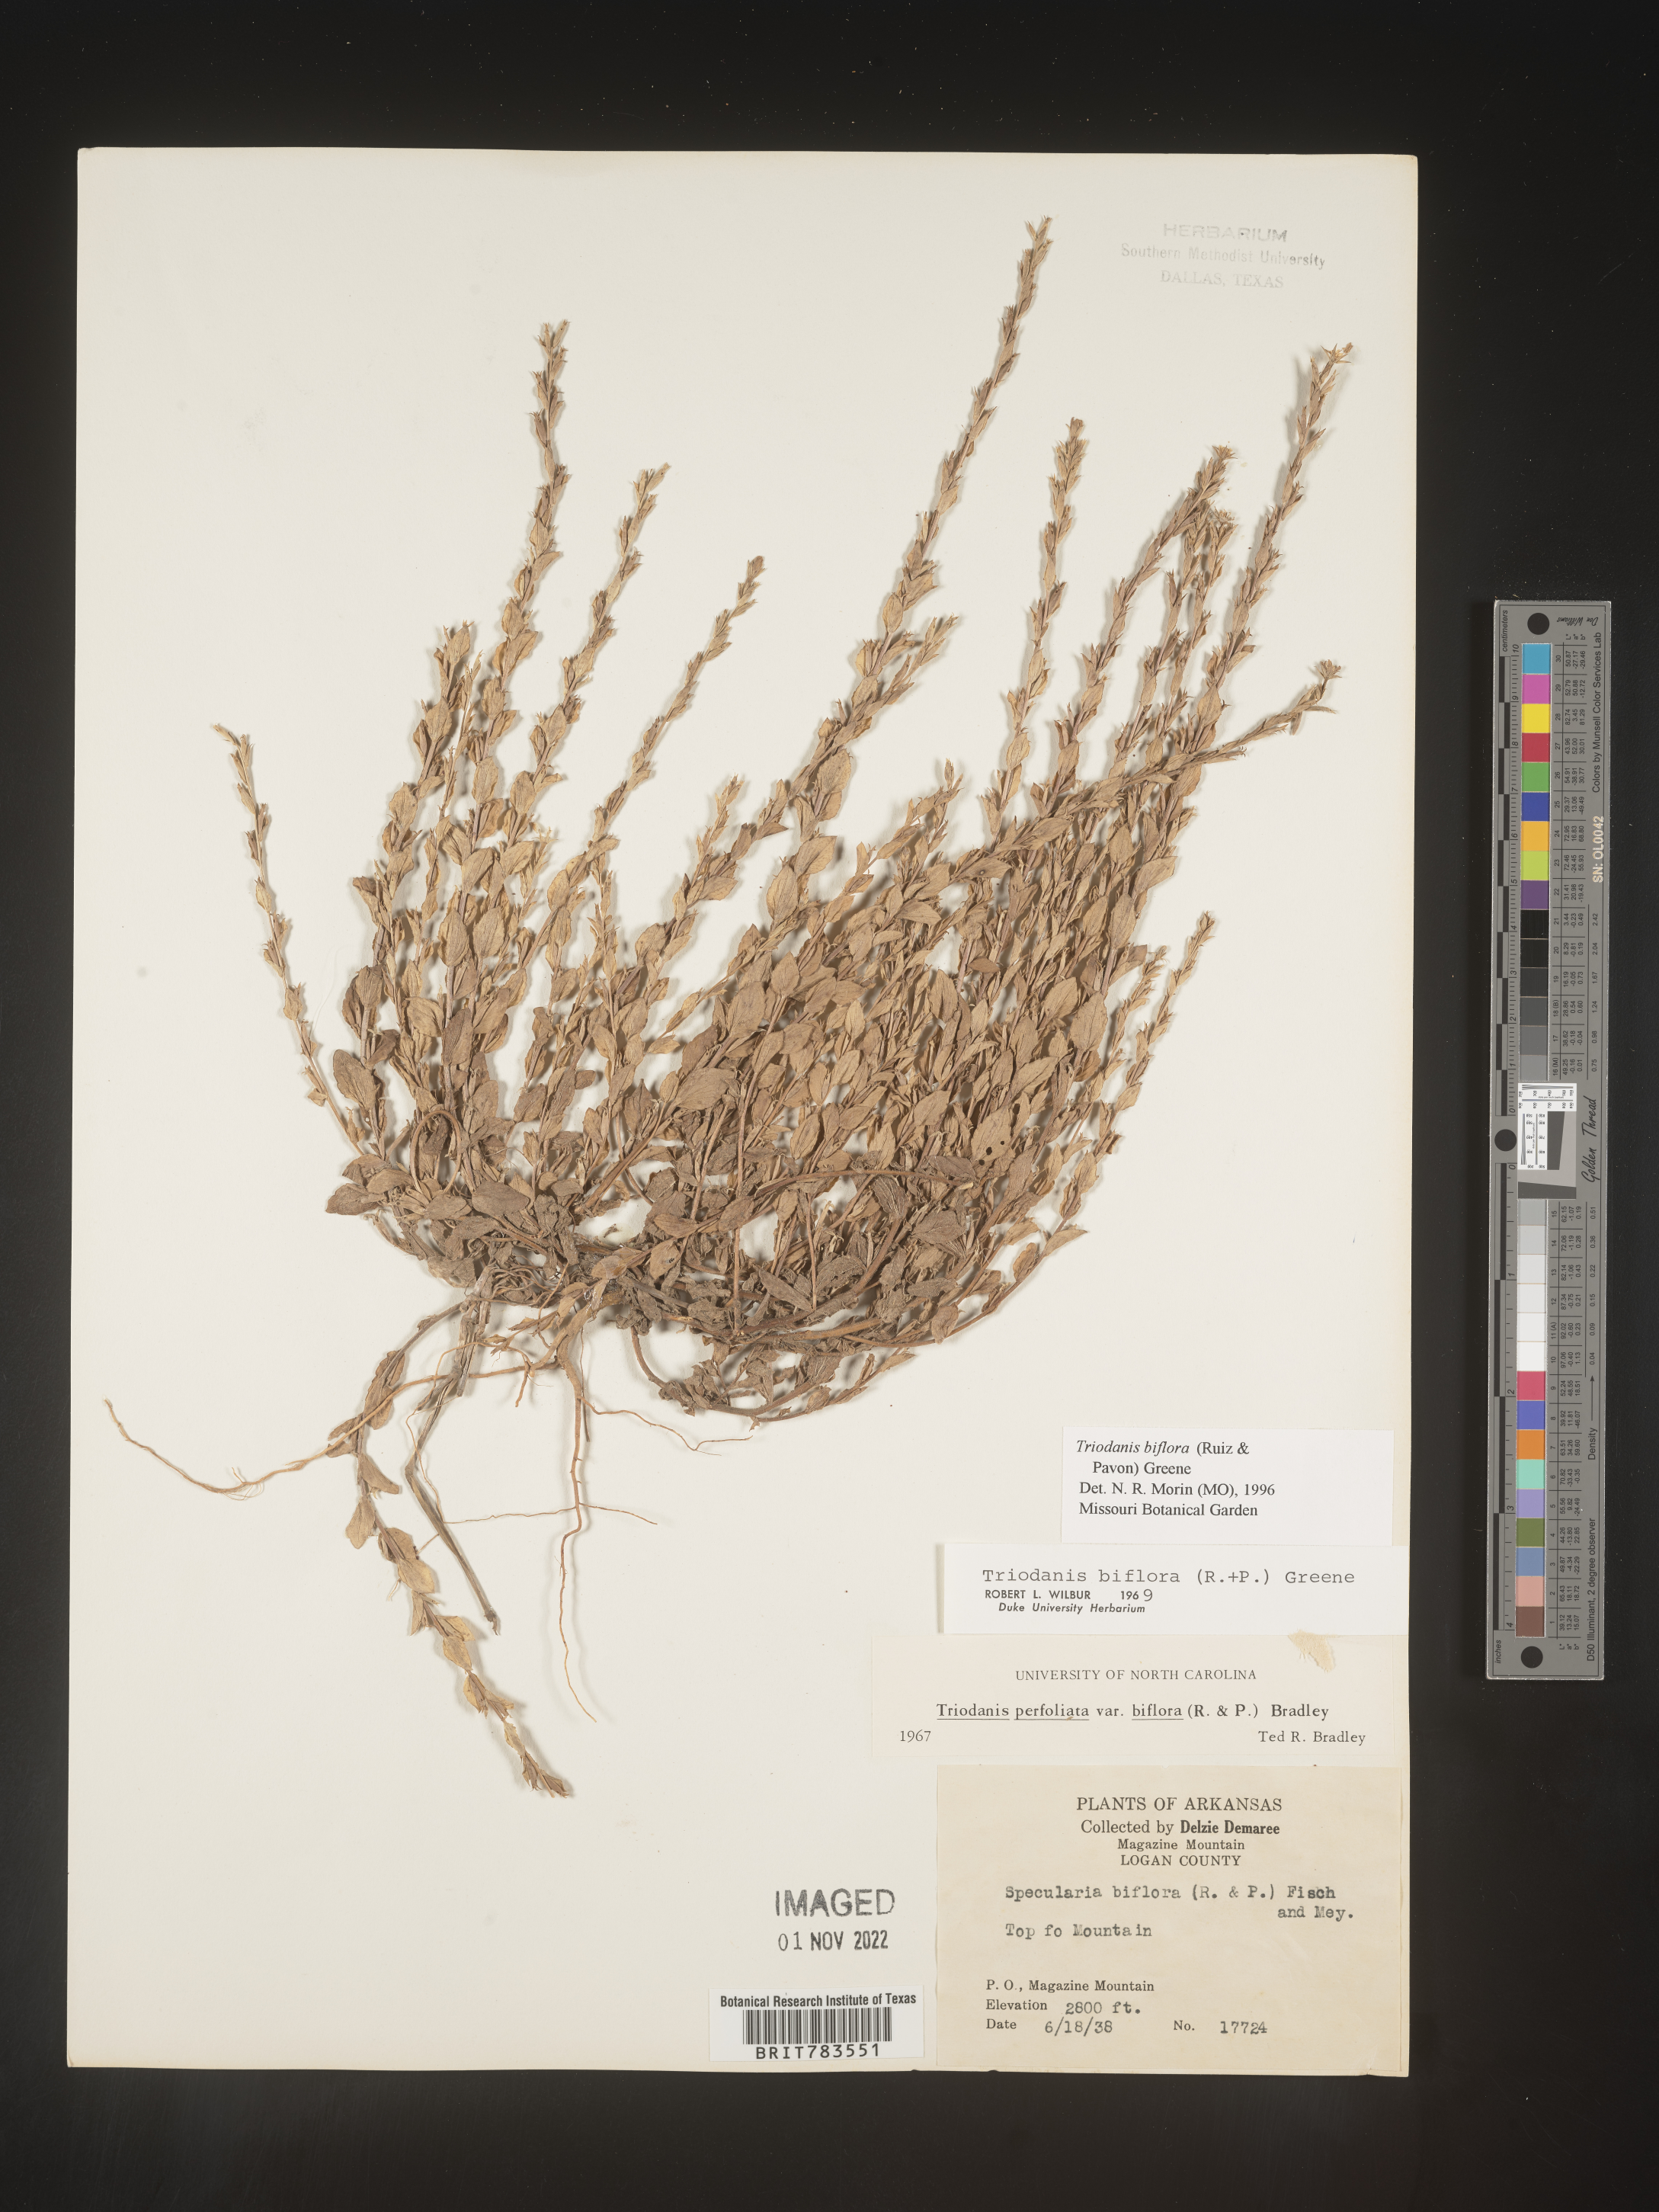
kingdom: Plantae
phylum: Tracheophyta
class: Magnoliopsida
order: Asterales
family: Campanulaceae
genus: Triodanis
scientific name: Triodanis perfoliata
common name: Clasping venus' looking-glass
